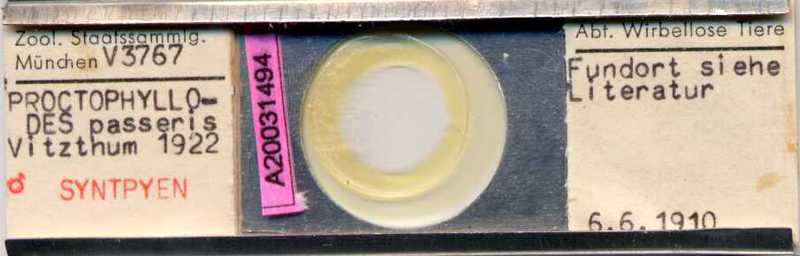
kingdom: Animalia
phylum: Arthropoda
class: Arachnida
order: Sarcoptiformes
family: Proctophyllodidae
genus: Proctophyllodes
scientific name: Proctophyllodes troncatus
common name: Mite
